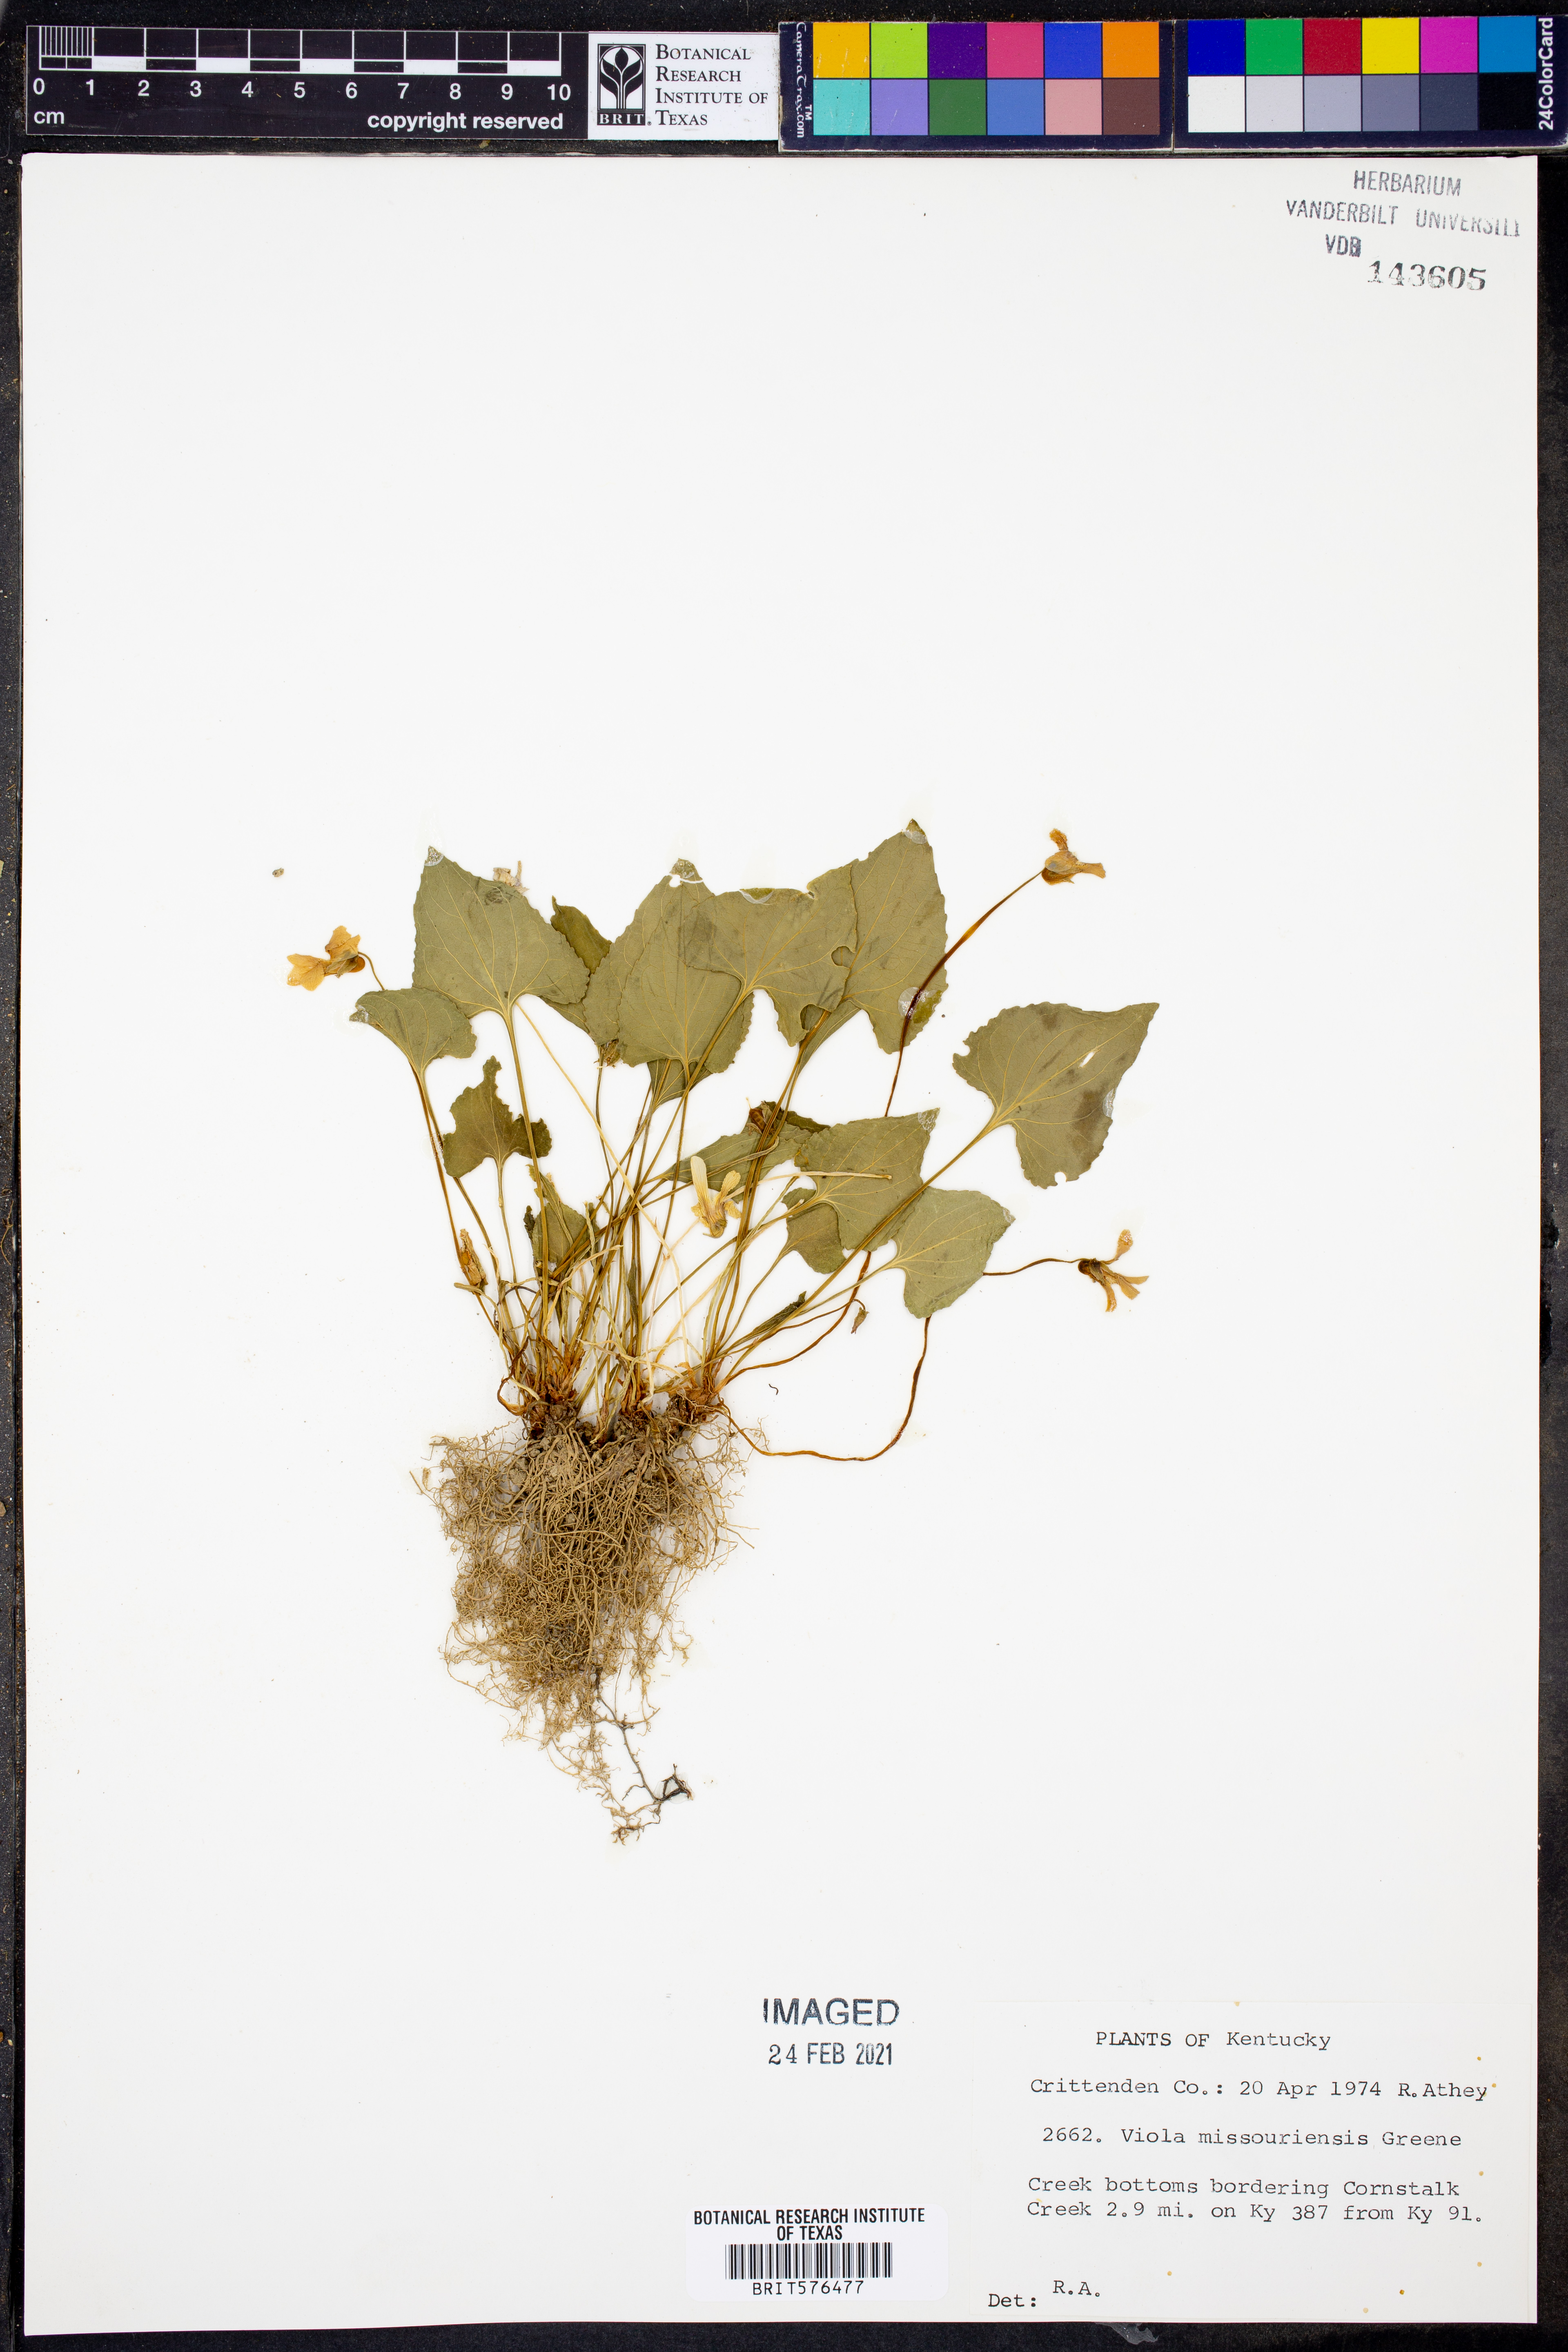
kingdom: Plantae
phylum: Tracheophyta
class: Magnoliopsida
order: Malpighiales
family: Violaceae
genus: Viola
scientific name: Viola missouriensis
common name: Missouri violet
